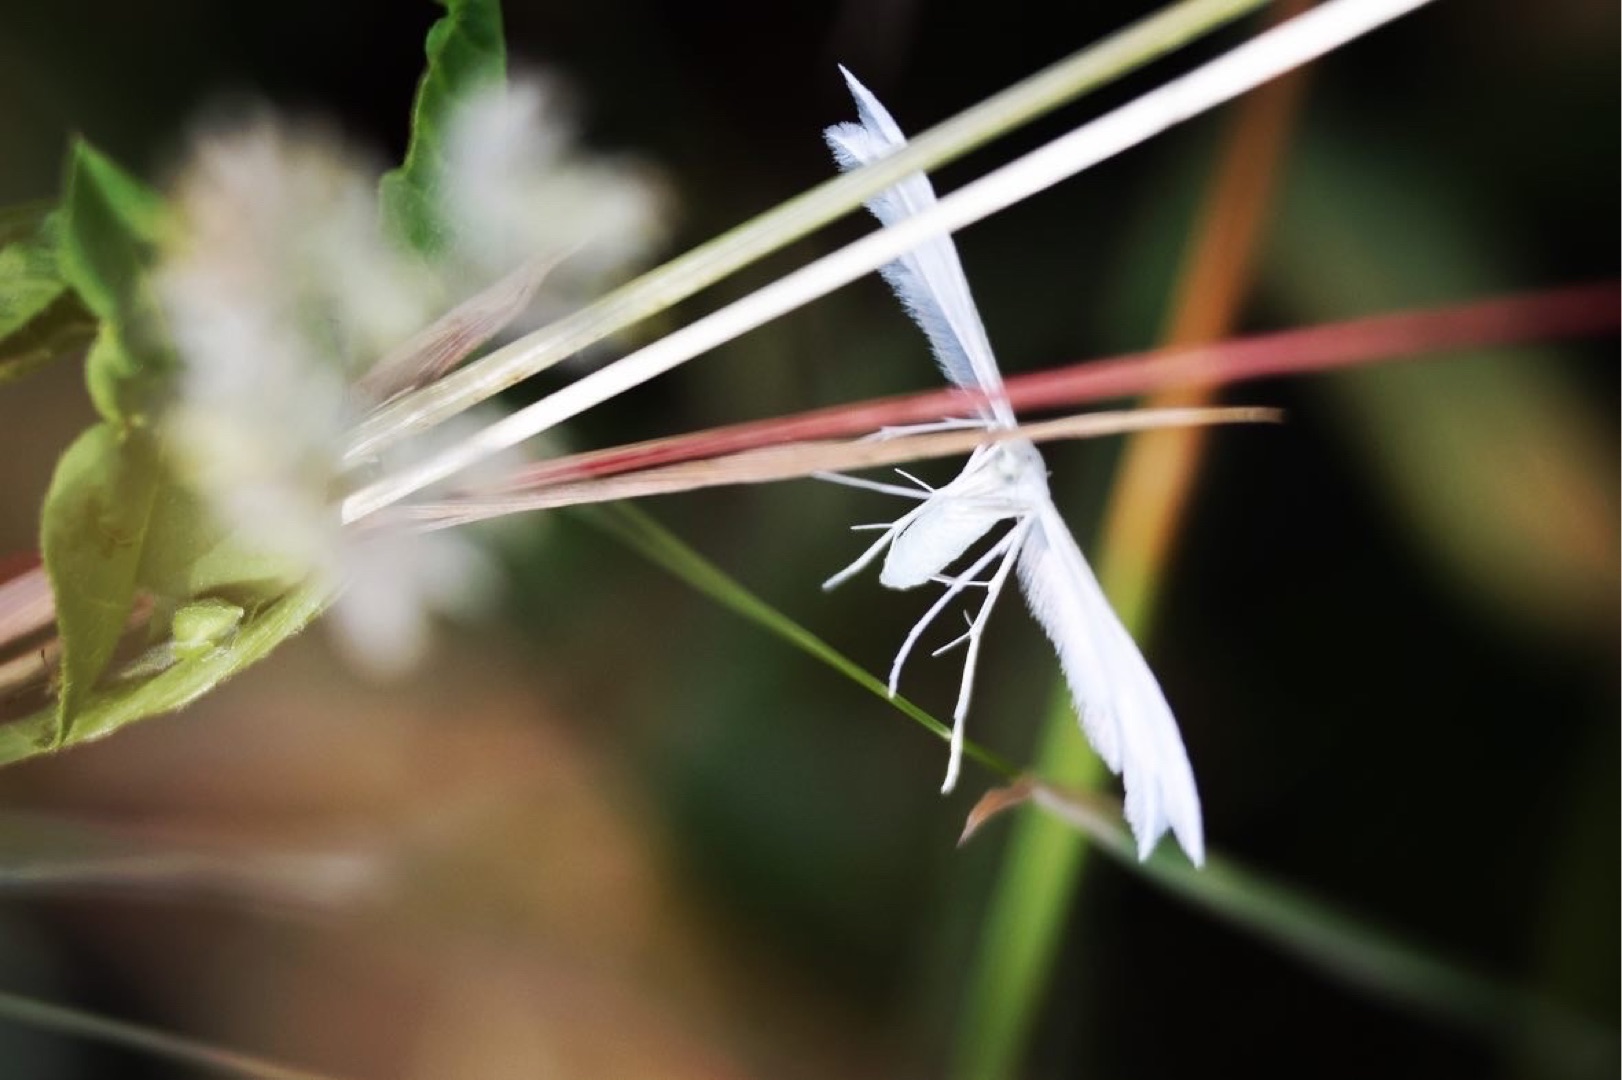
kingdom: Animalia
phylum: Arthropoda
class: Insecta
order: Lepidoptera
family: Pterophoridae
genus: Pterophorus
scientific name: Pterophorus pentadactyla
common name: Hvidt fjermøl
